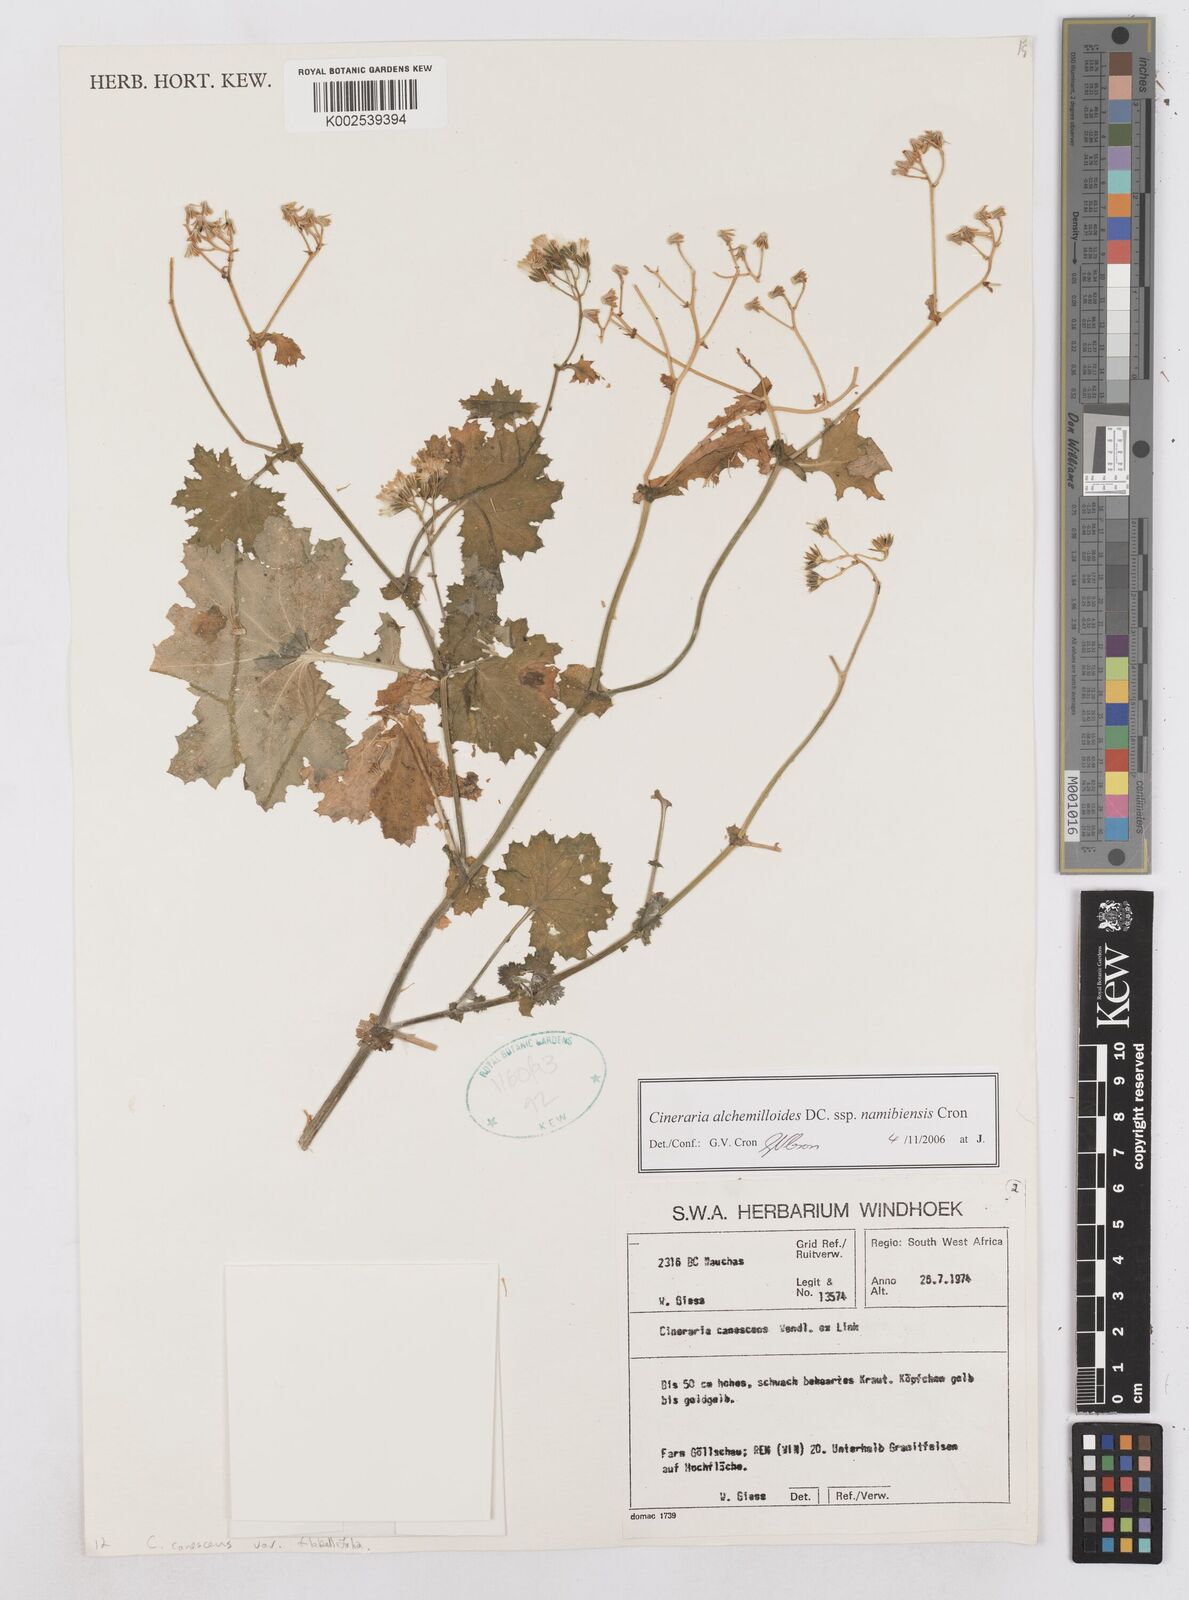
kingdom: Plantae
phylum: Tracheophyta
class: Magnoliopsida
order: Asterales
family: Asteraceae
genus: Cineraria
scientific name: Cineraria alchemilloides
